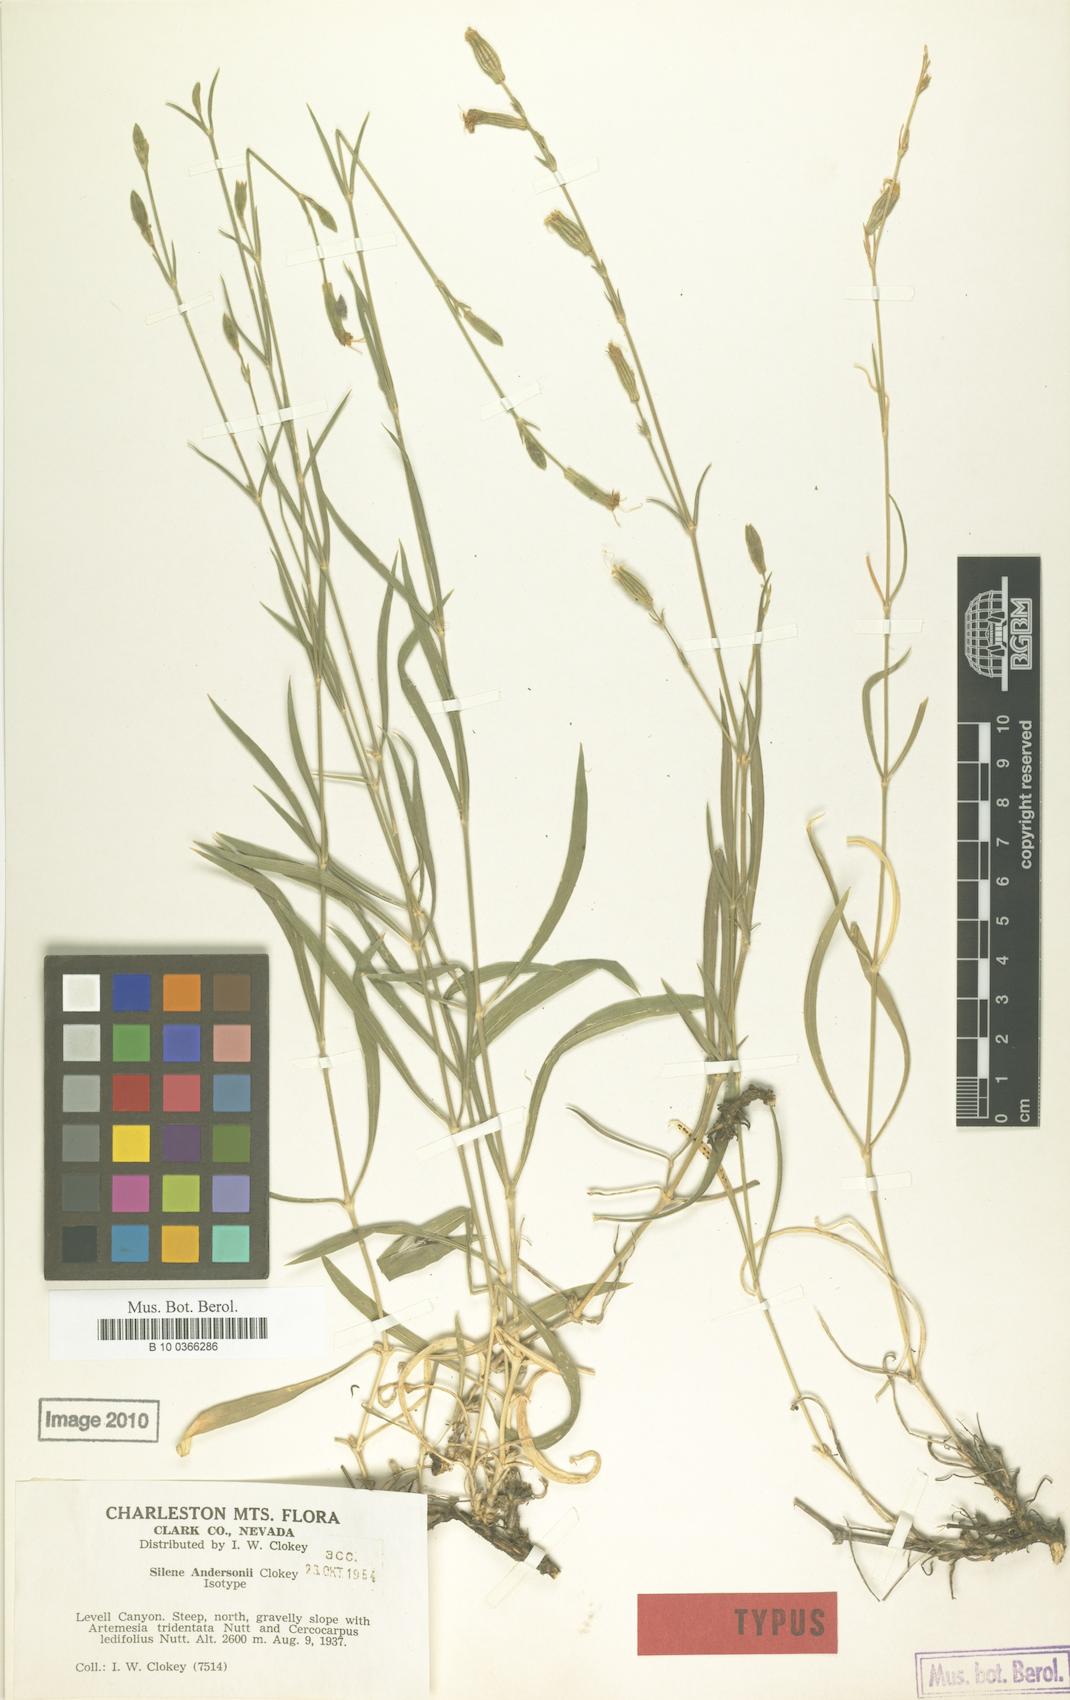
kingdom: Plantae
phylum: Tracheophyta
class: Magnoliopsida
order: Caryophyllales
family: Caryophyllaceae
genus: Silene
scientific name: Silene verecunda
